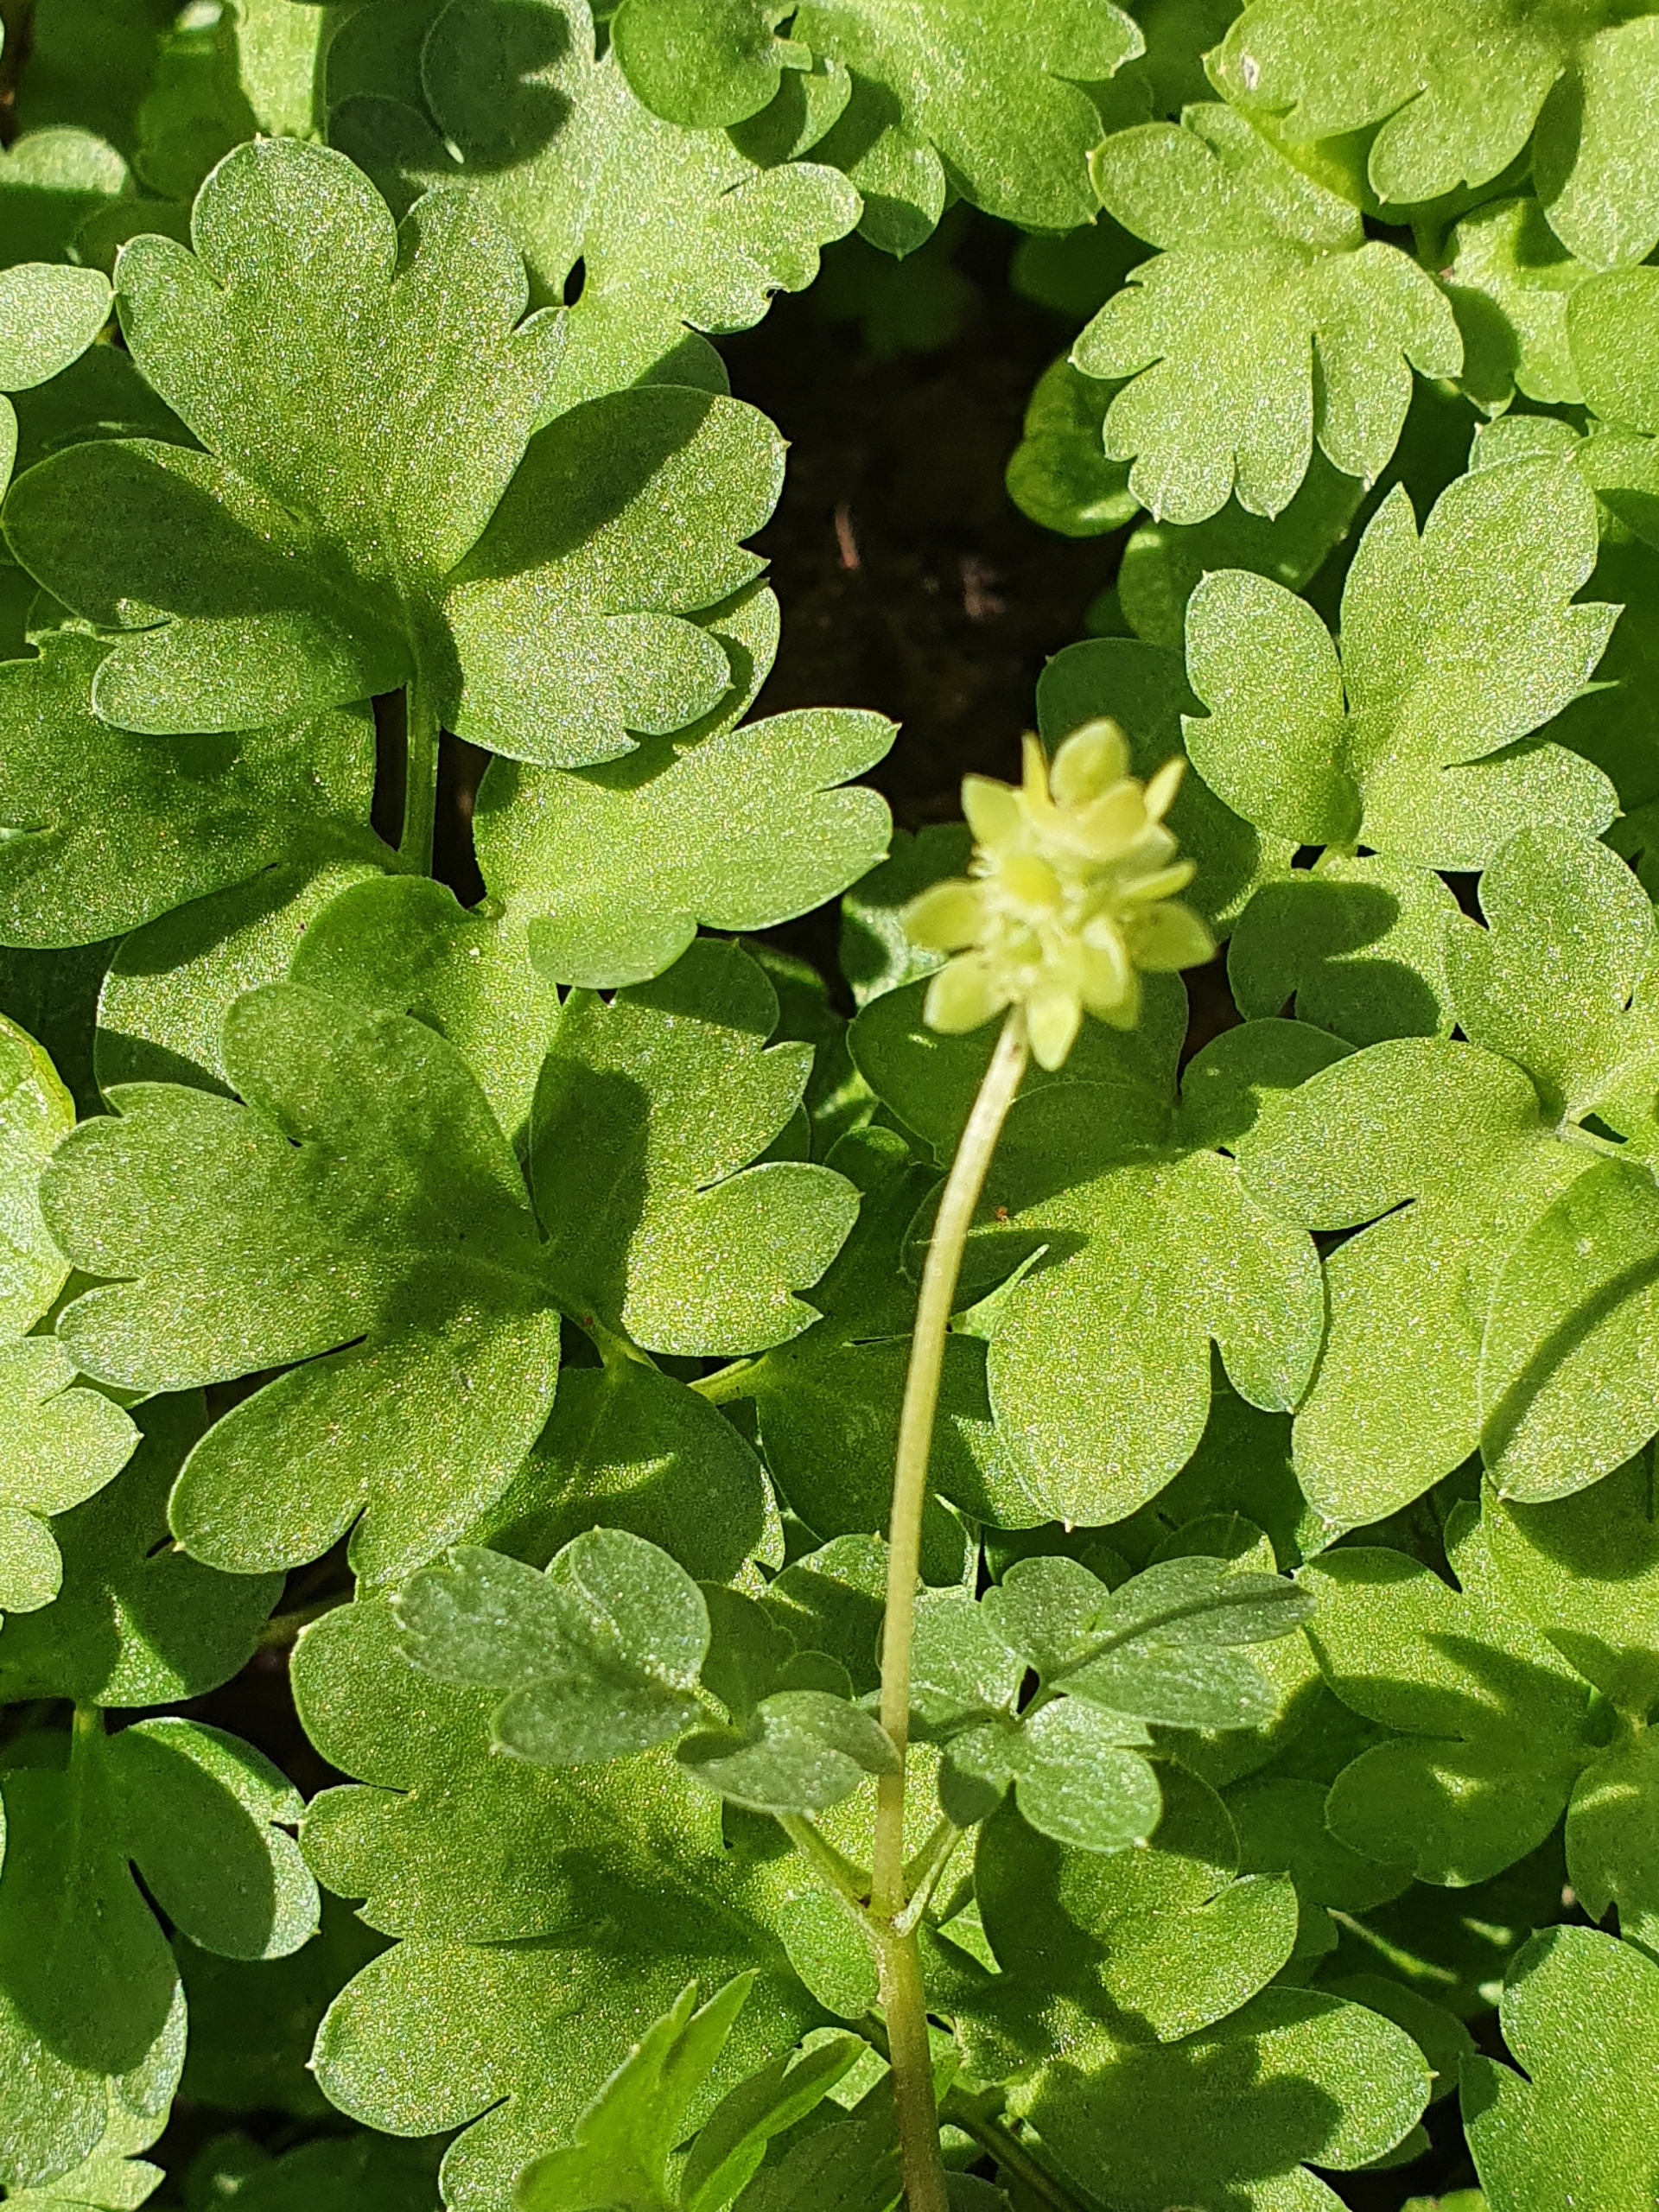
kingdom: Plantae
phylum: Tracheophyta
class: Magnoliopsida
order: Dipsacales
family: Viburnaceae
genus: Adoxa
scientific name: Adoxa moschatellina
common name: Desmerurt
